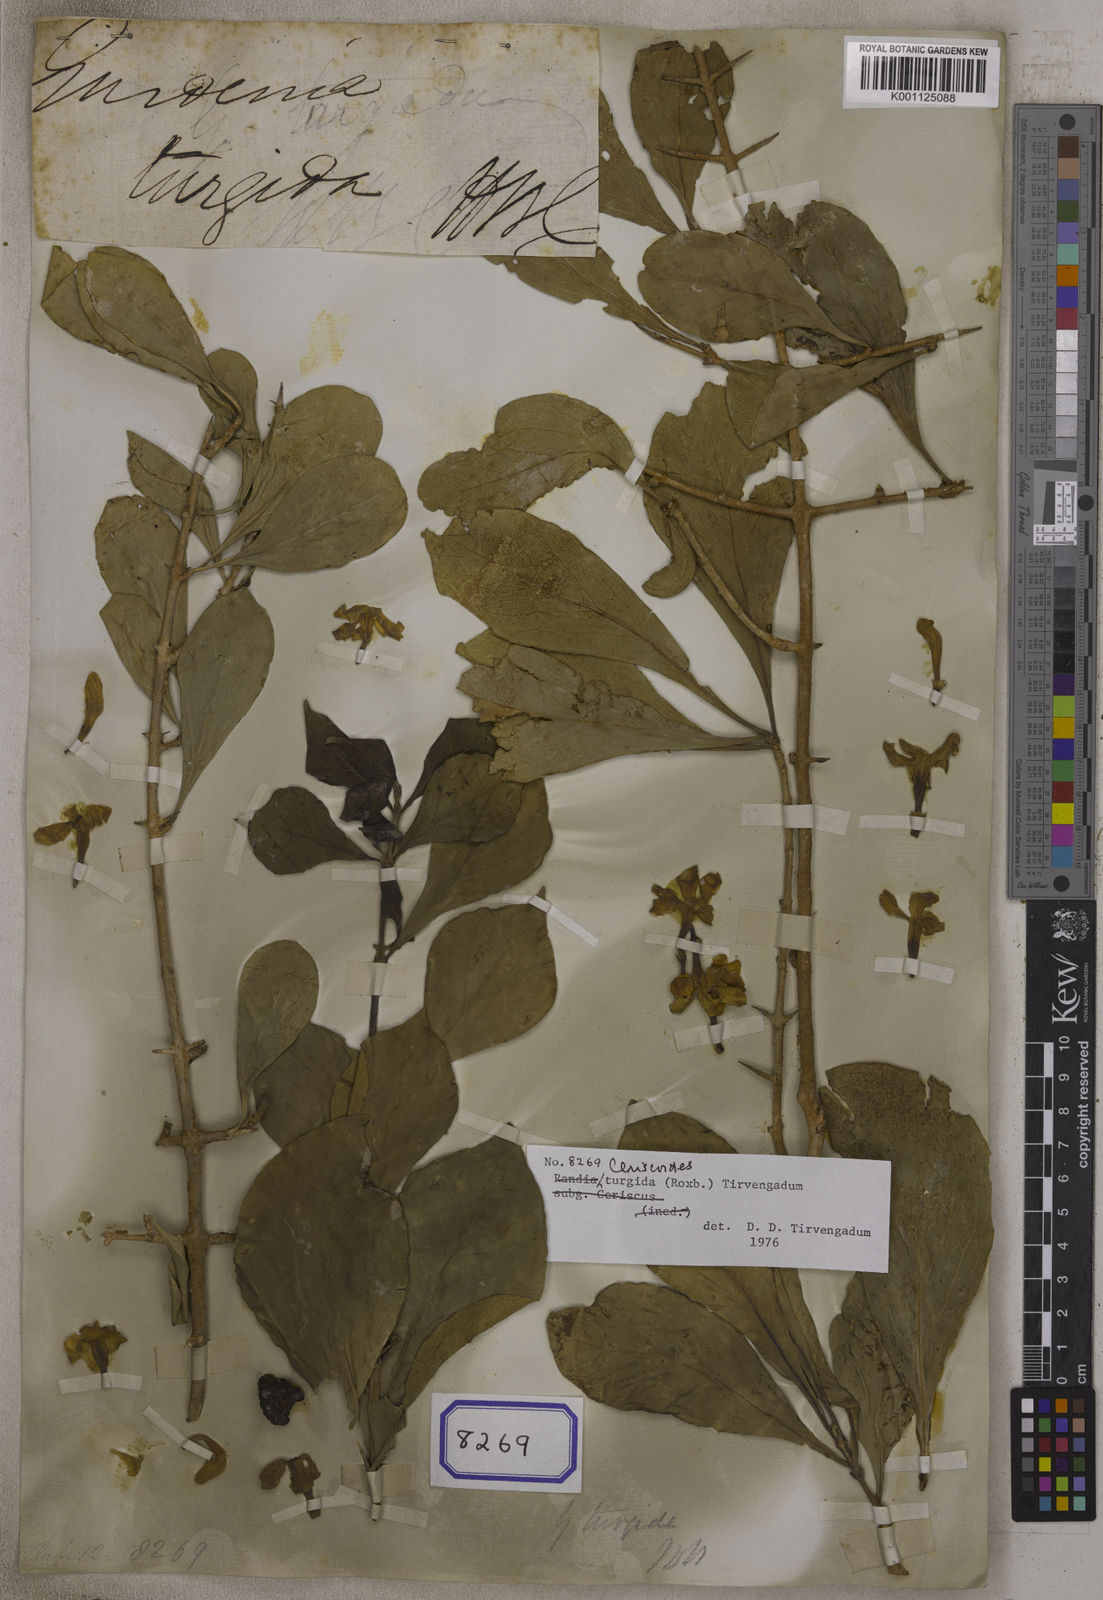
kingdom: Plantae
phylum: Tracheophyta
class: Magnoliopsida
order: Gentianales
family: Rubiaceae
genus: Ceriscoides
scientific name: Ceriscoides turgida
